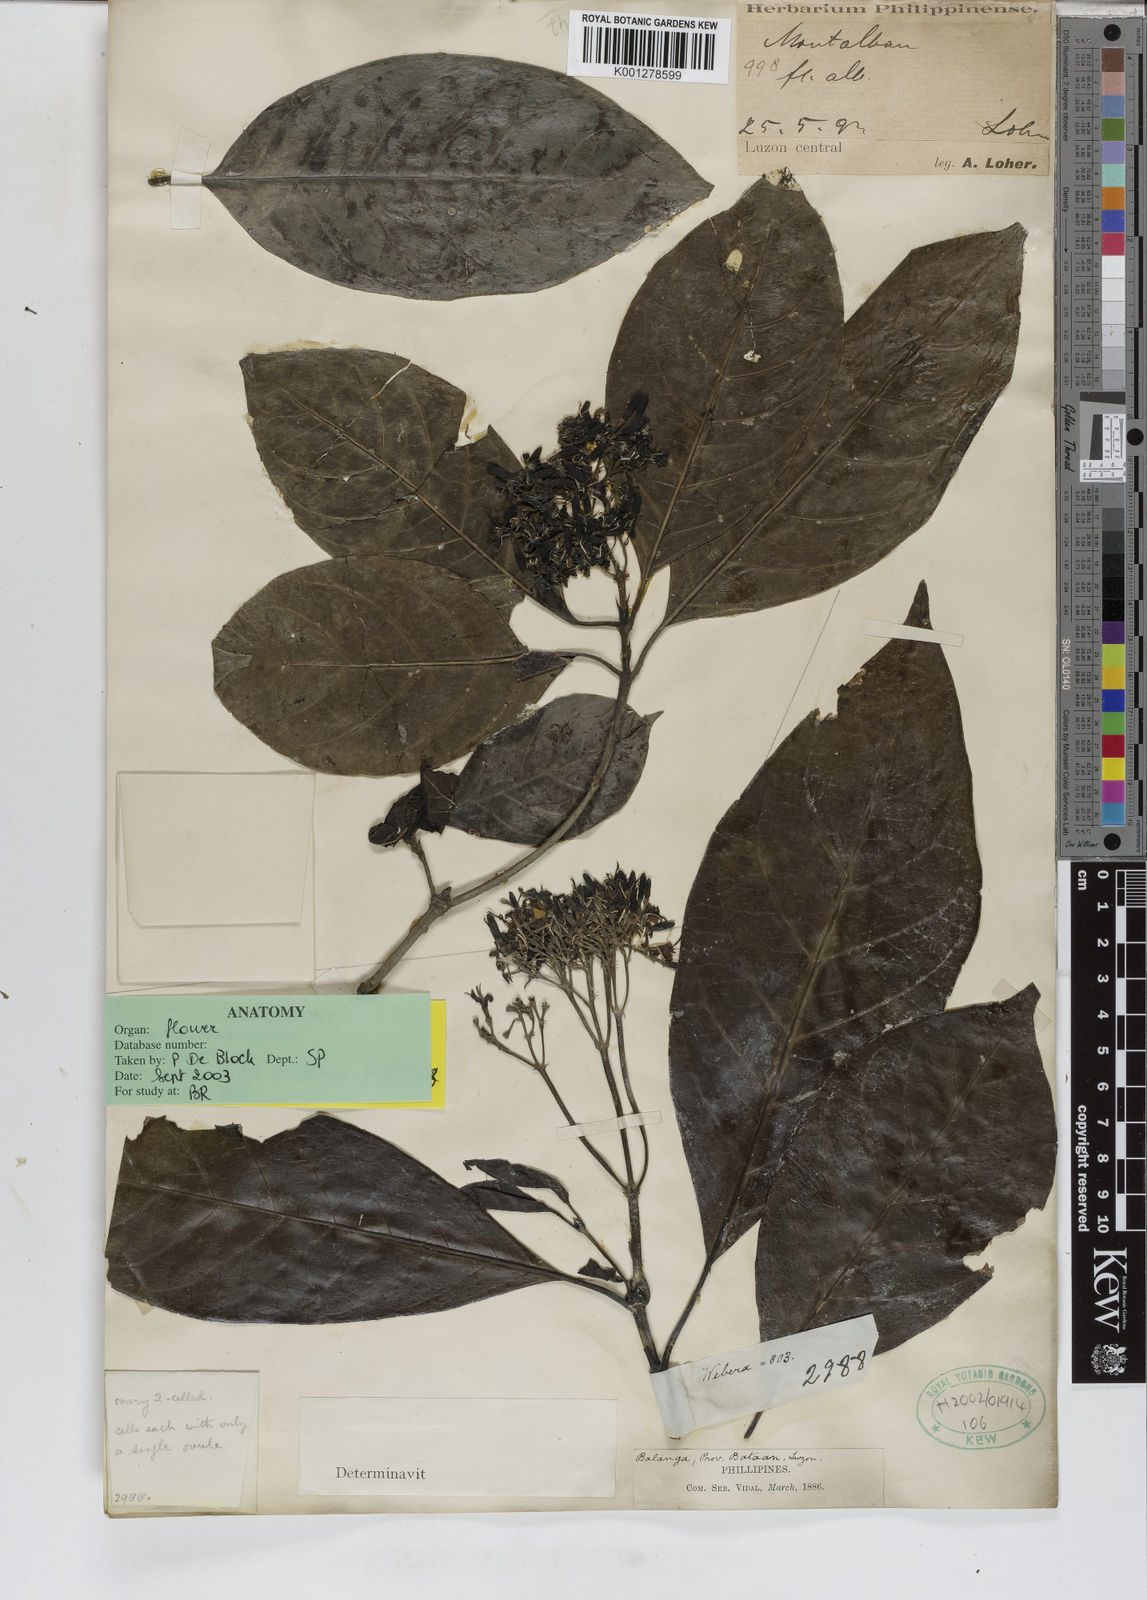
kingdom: Plantae
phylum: Tracheophyta
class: Magnoliopsida
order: Gentianales
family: Rubiaceae
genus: Tarenna
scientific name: Tarenna
